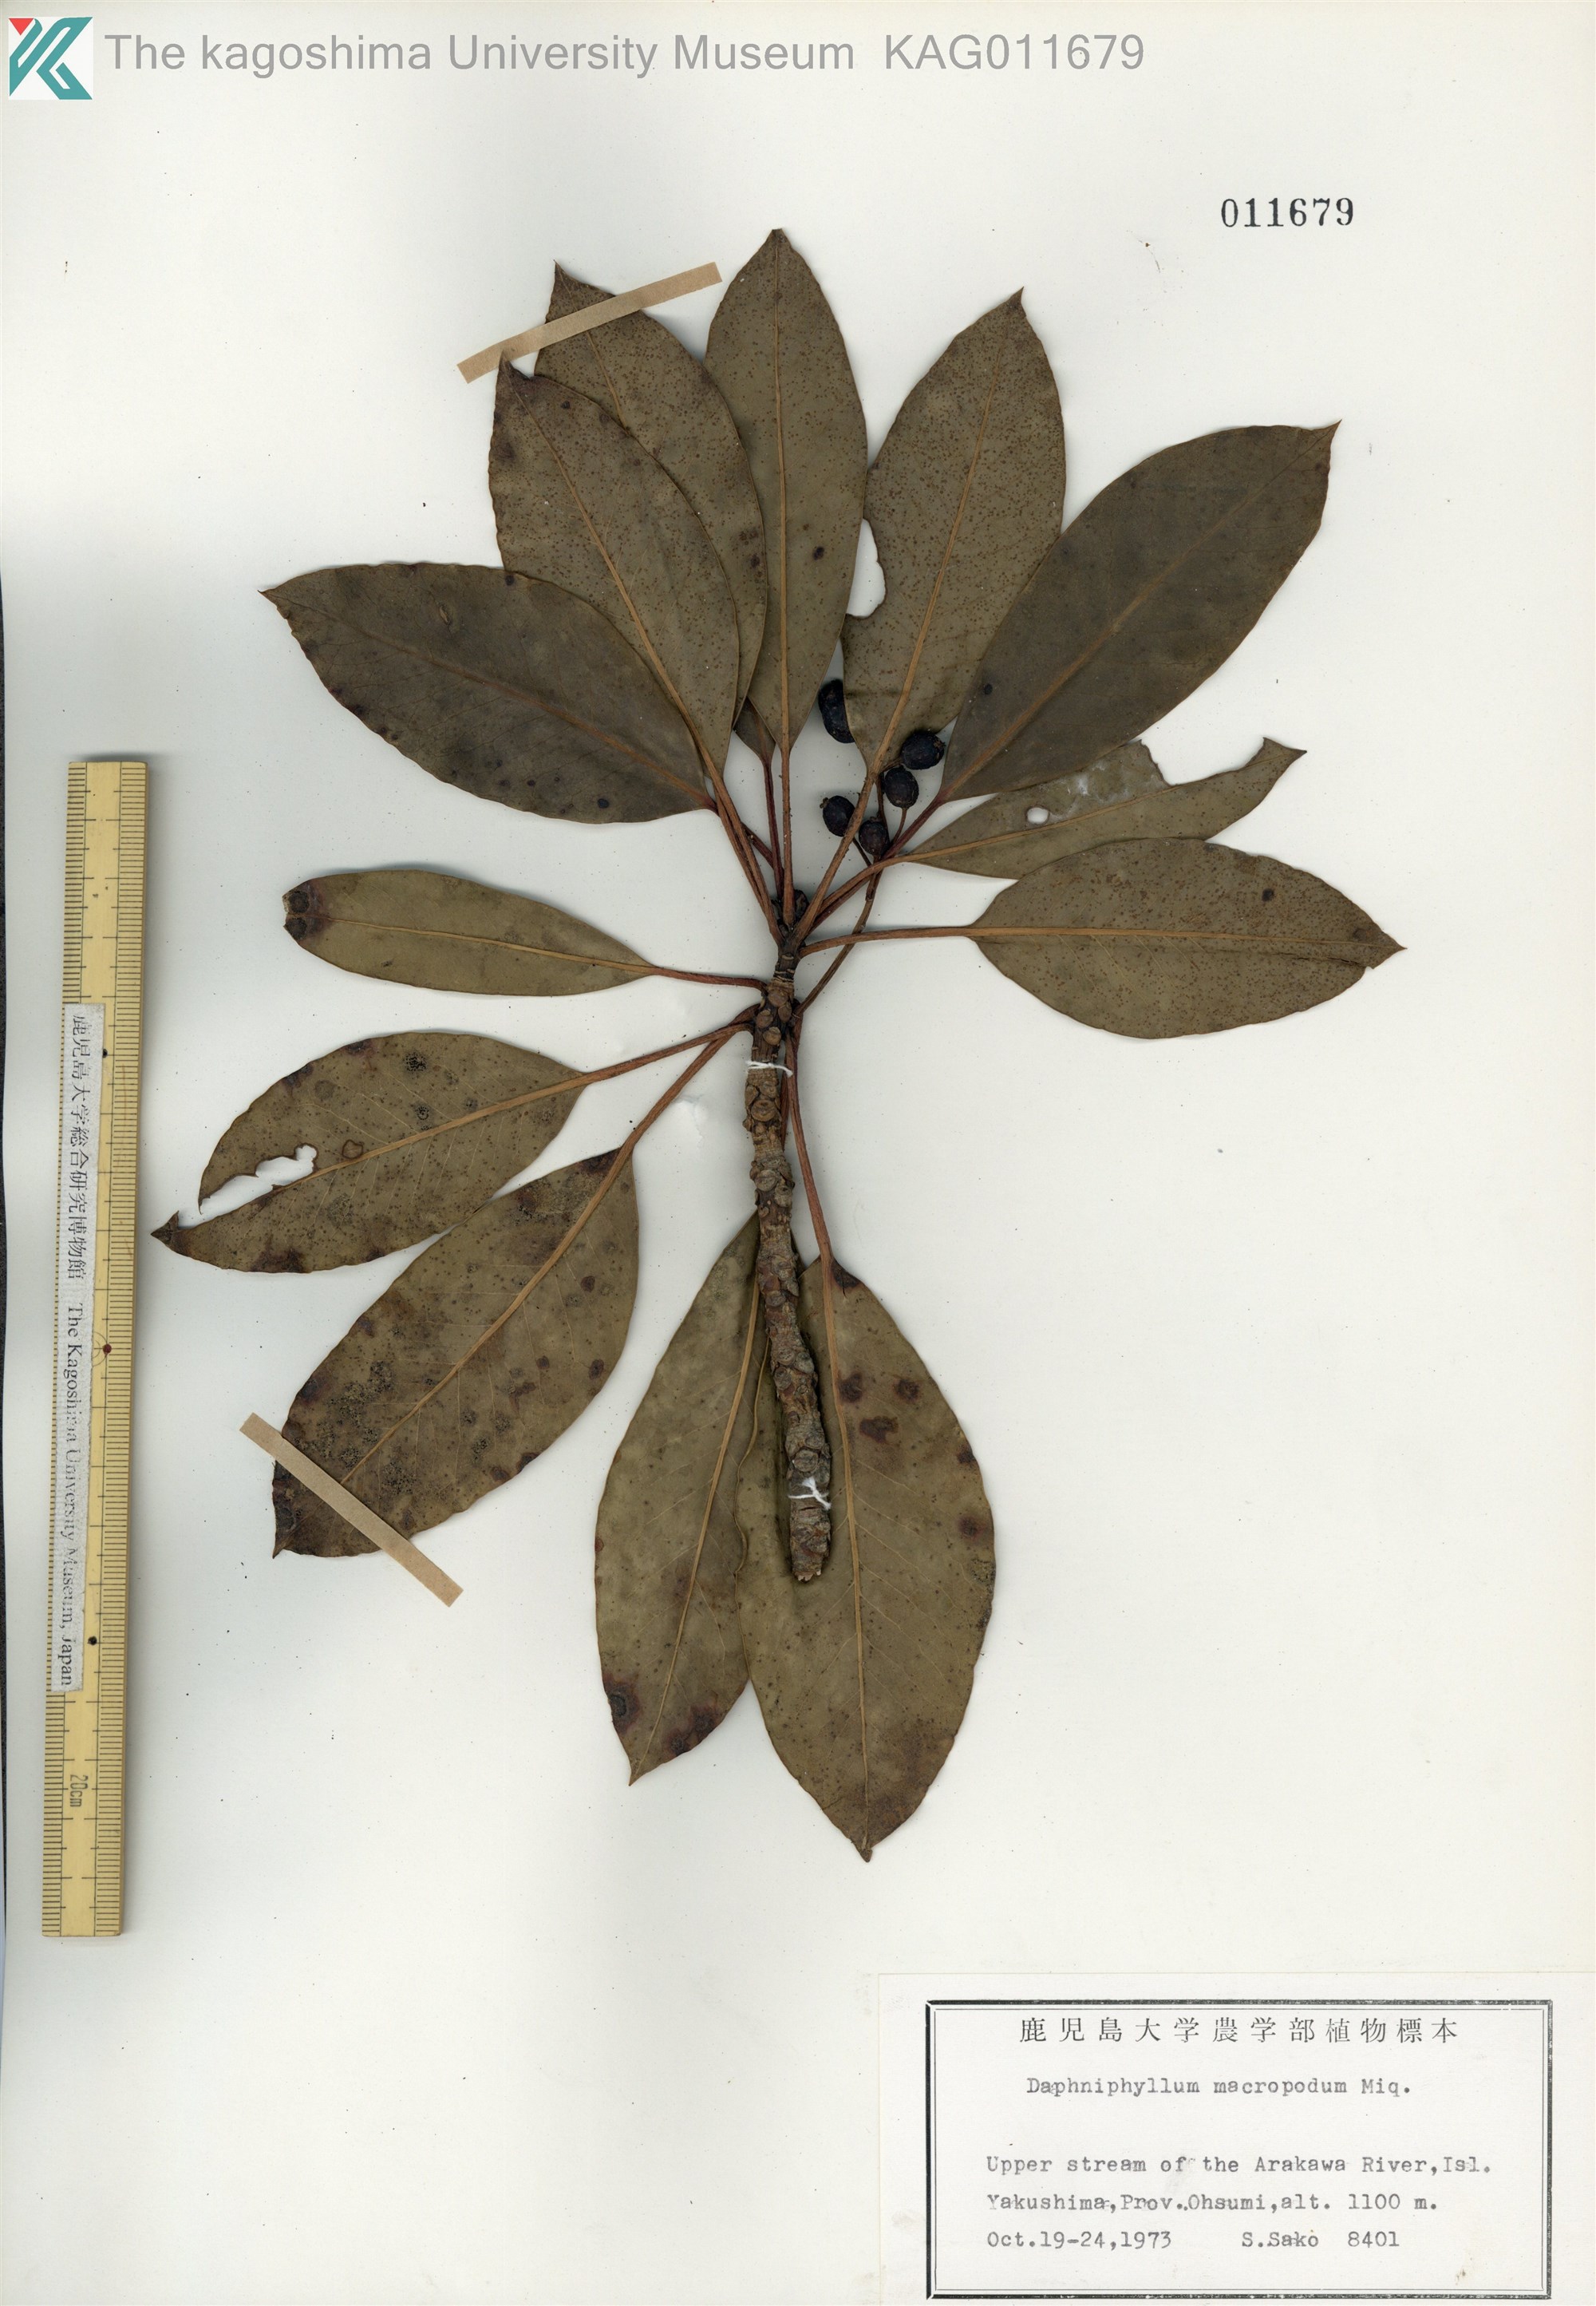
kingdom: Plantae
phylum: Tracheophyta
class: Magnoliopsida
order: Saxifragales
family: Daphniphyllaceae
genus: Daphniphyllum
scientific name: Daphniphyllum macropodum
